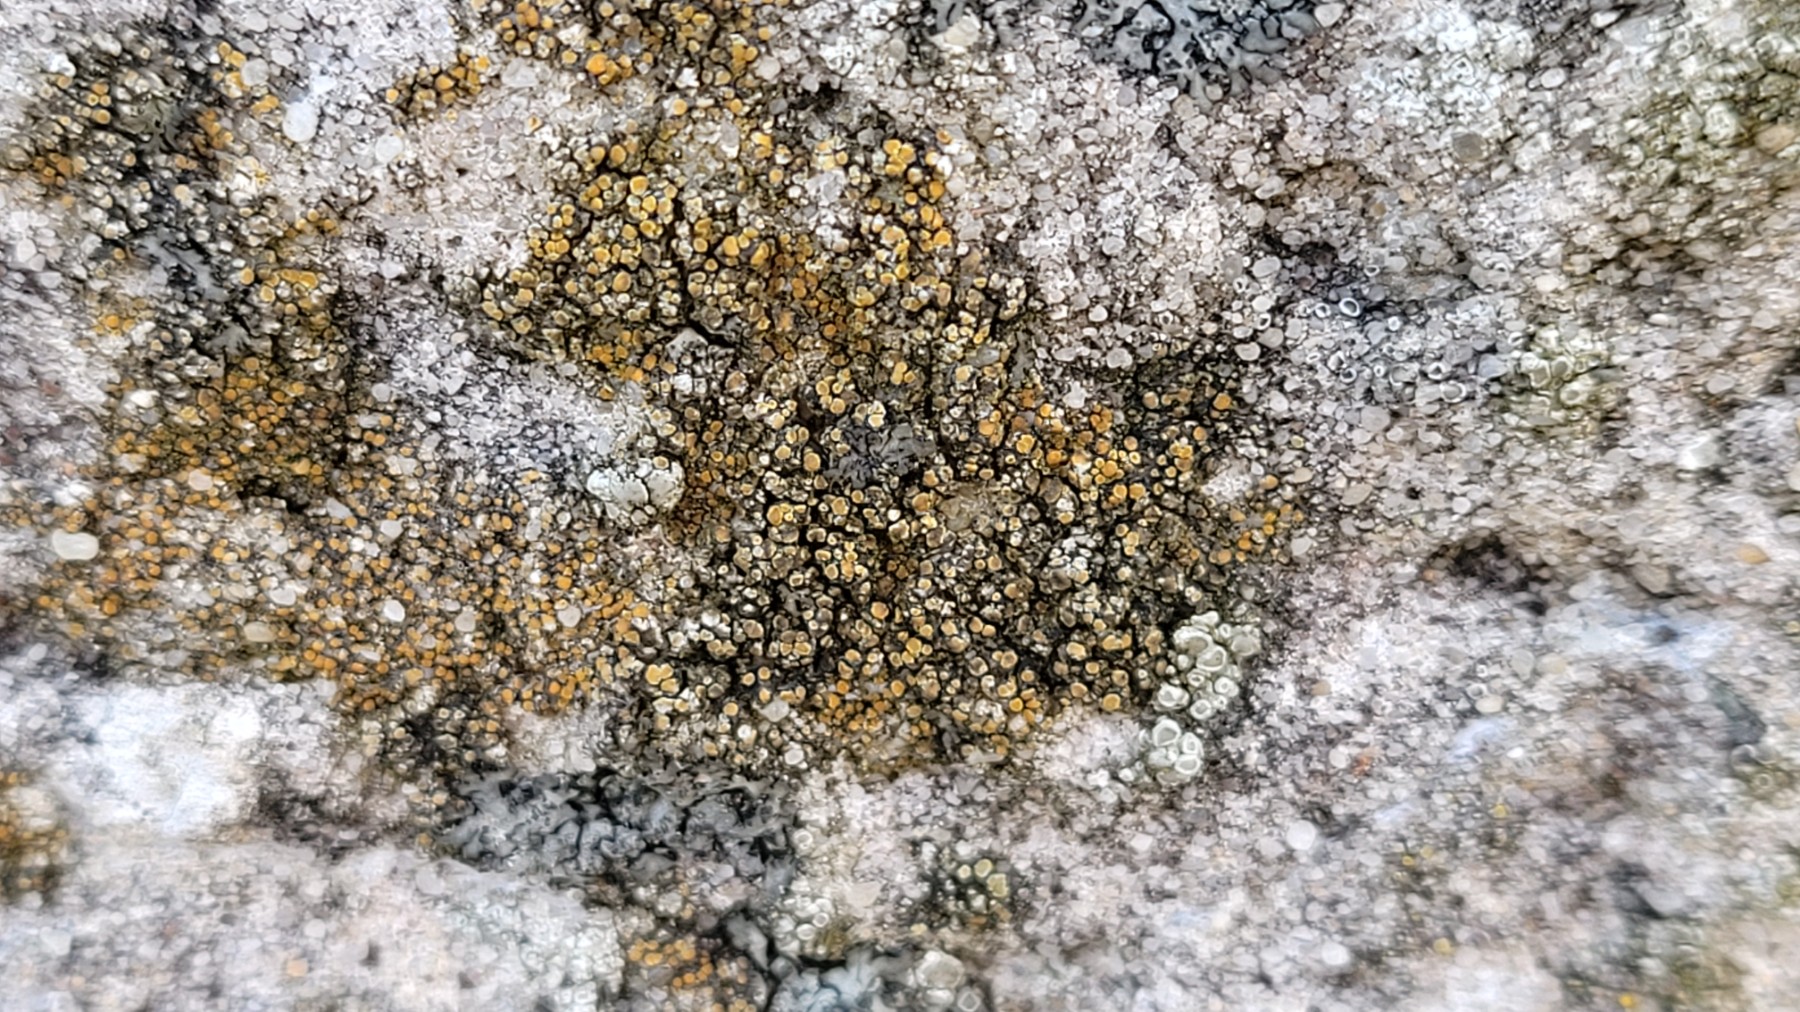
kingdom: Fungi
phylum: Ascomycota
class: Lecanoromycetes
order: Teloschistales
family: Teloschistaceae
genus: Flavoplaca
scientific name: Flavoplaca oasis
